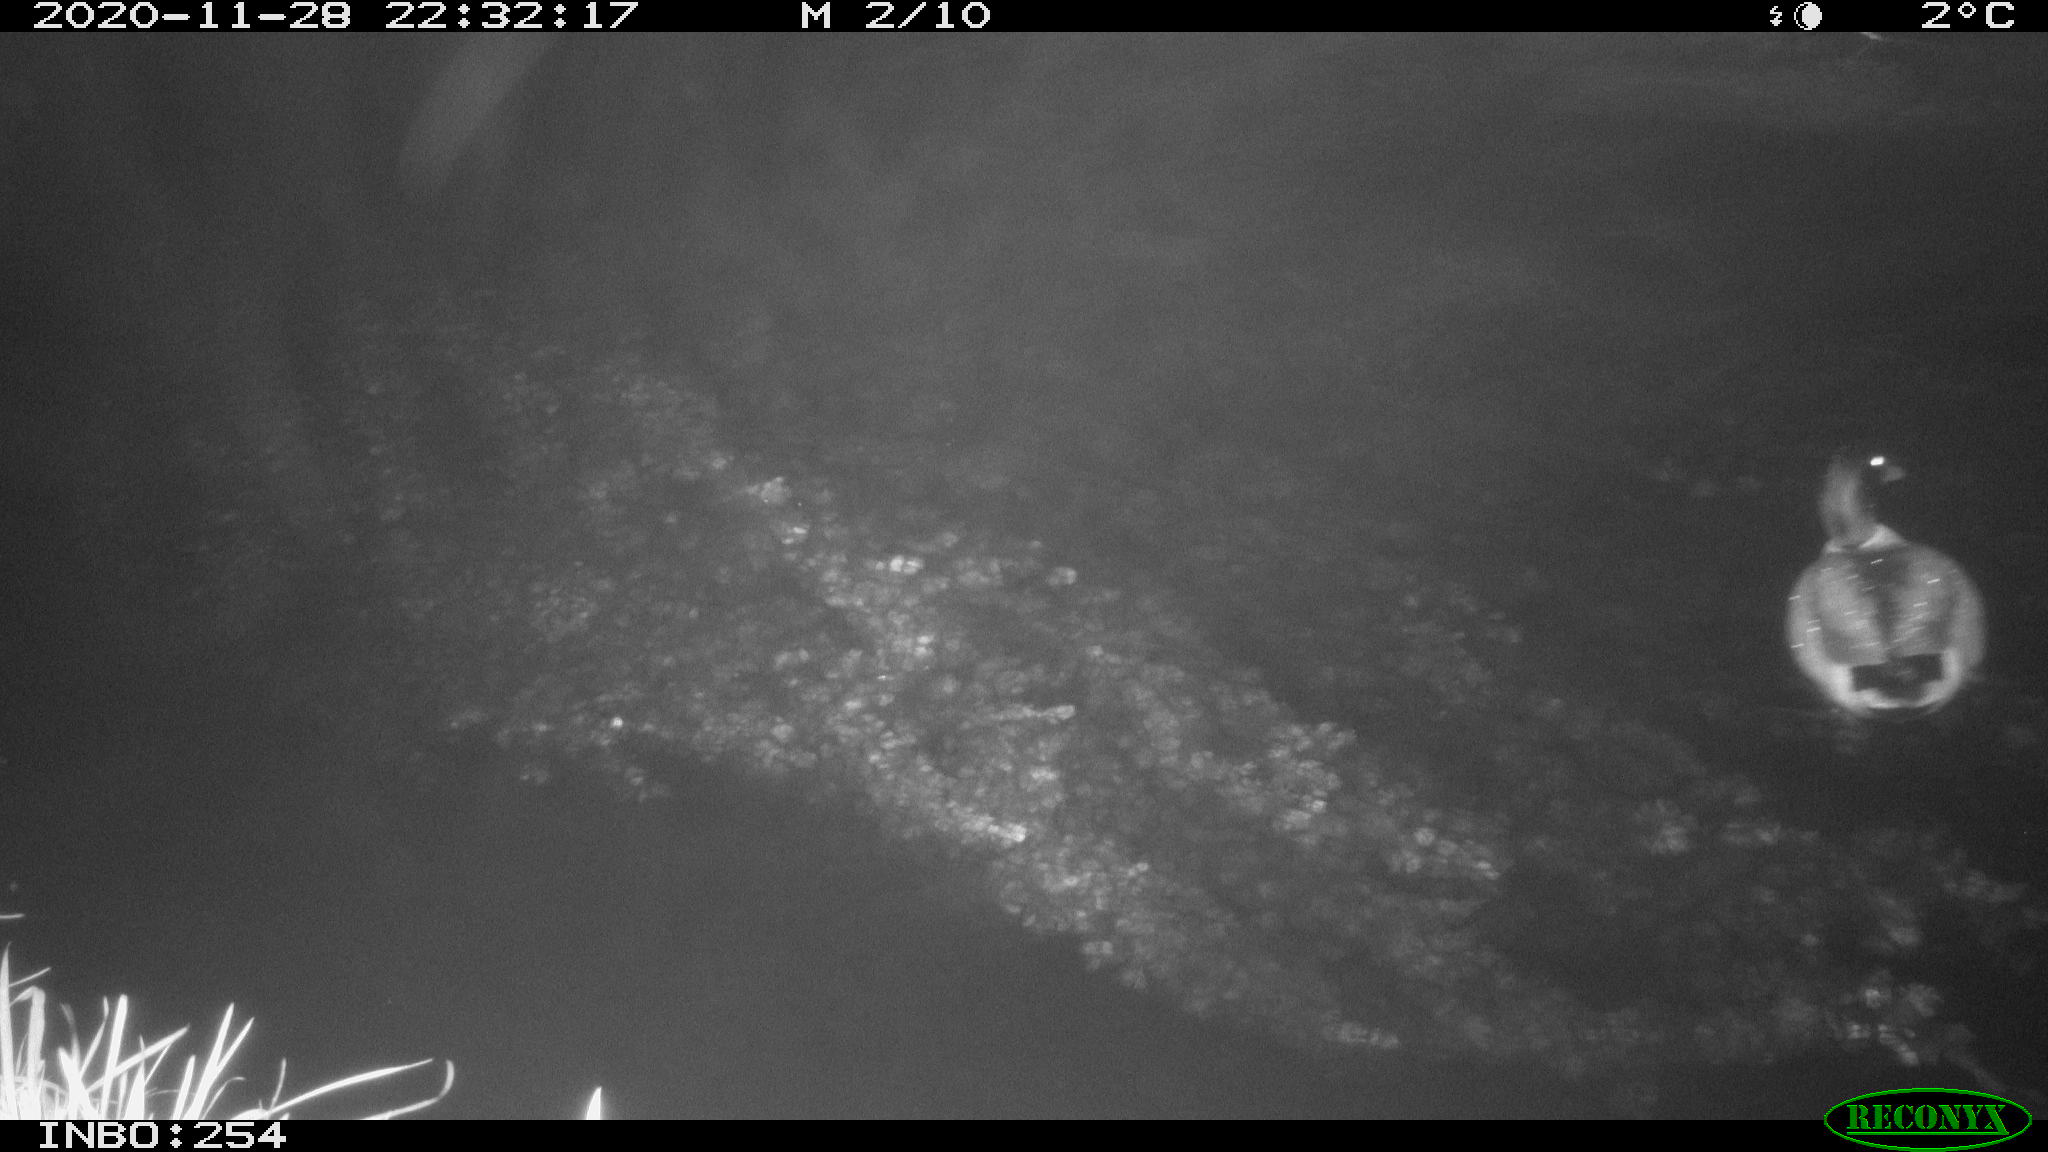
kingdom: Animalia
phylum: Chordata
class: Aves
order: Anseriformes
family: Anatidae
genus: Anas
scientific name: Anas platyrhynchos
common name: Mallard
